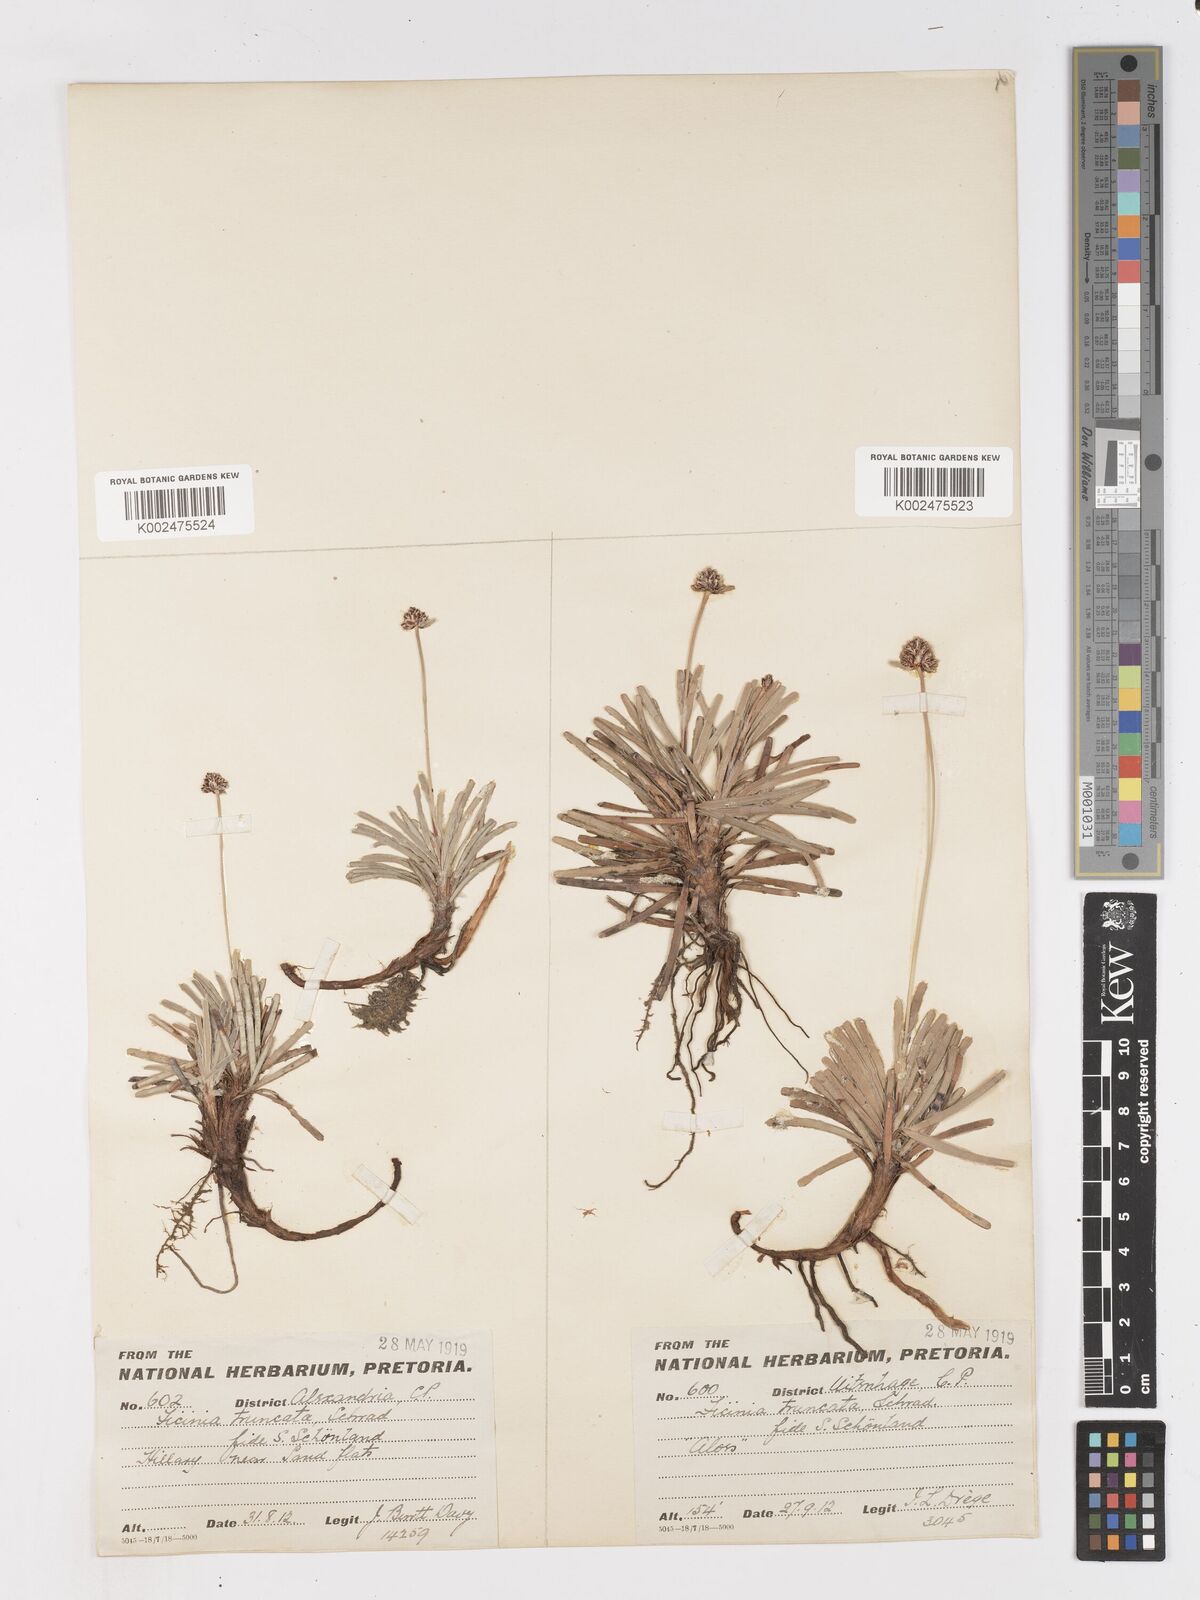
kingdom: Plantae
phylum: Tracheophyta
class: Liliopsida
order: Poales
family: Cyperaceae
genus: Ficinia
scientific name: Ficinia truncata
